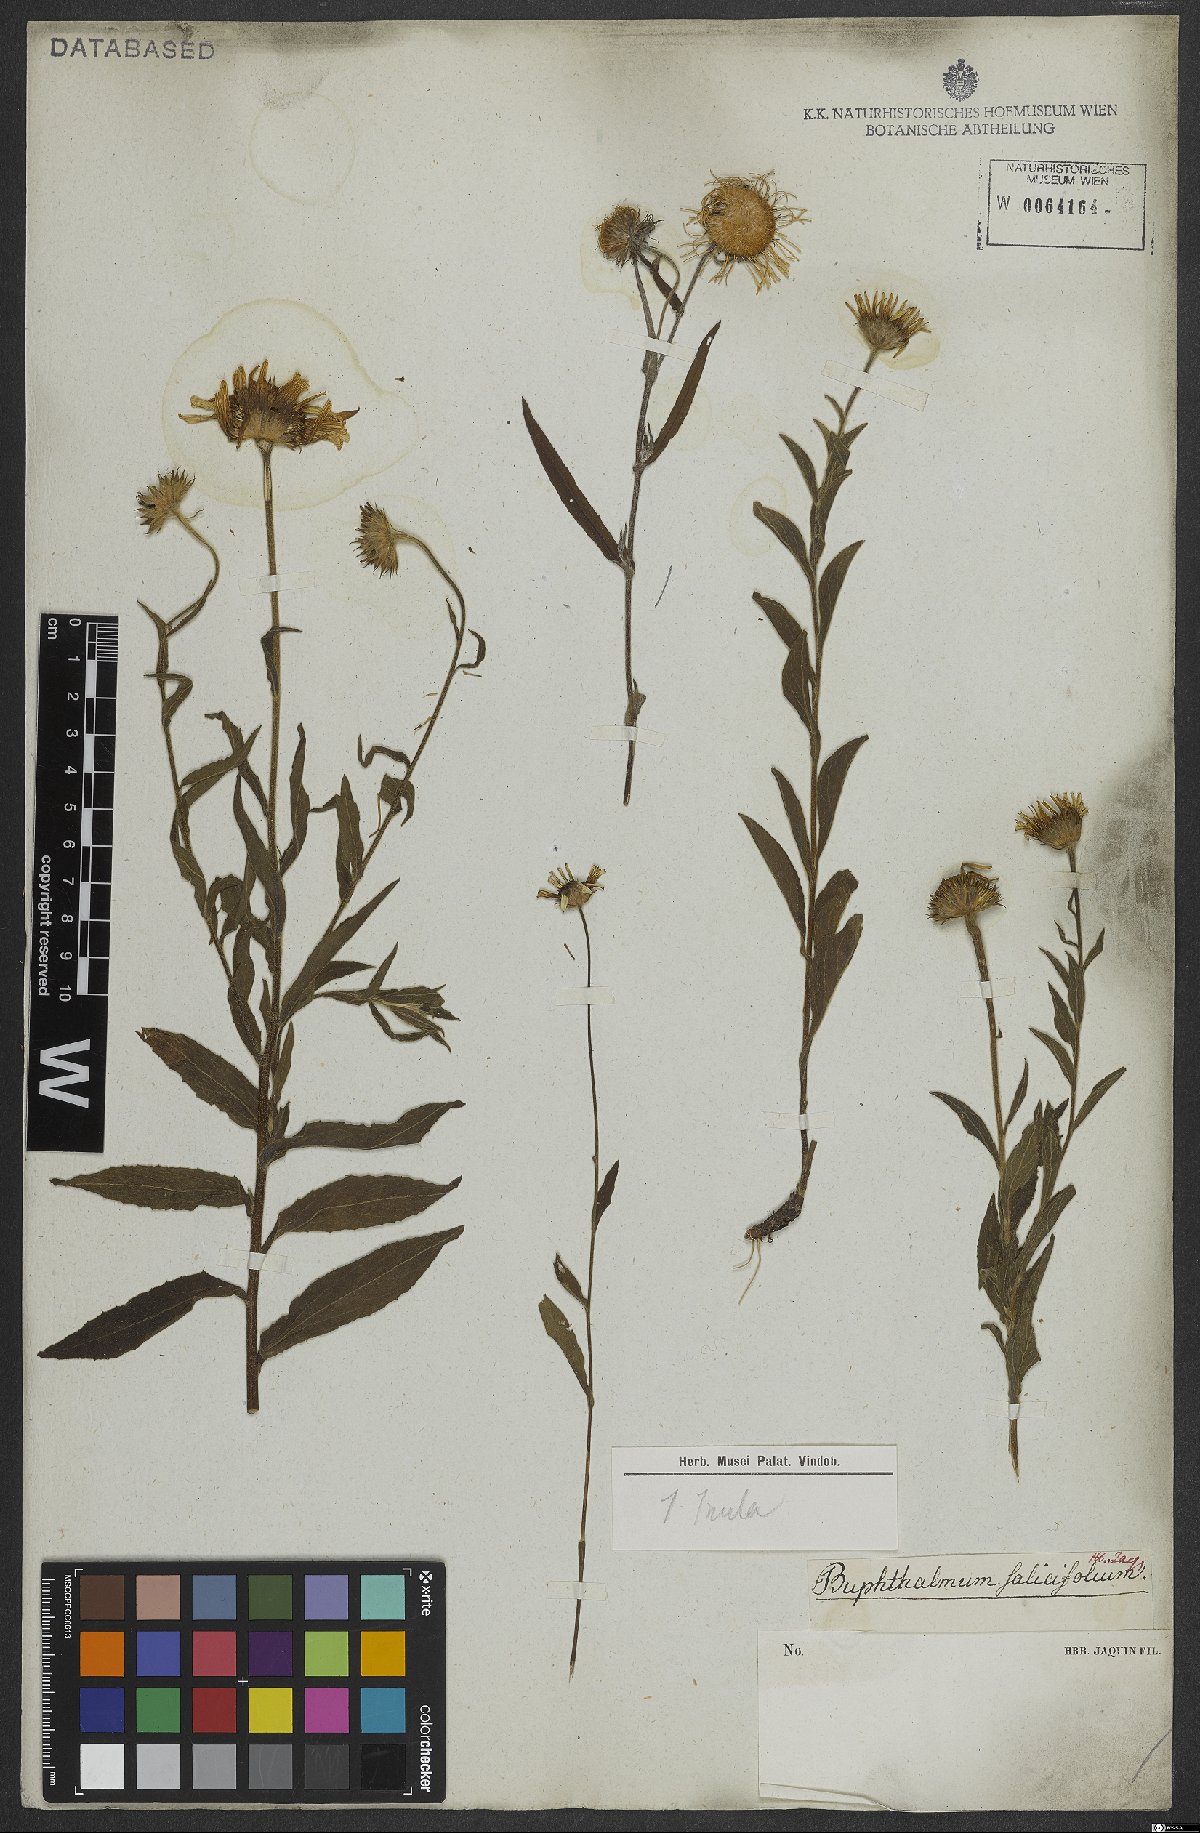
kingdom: Plantae
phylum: Tracheophyta
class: Magnoliopsida
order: Asterales
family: Asteraceae
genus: Buphthalmum
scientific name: Buphthalmum salicifolium
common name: Willow-leaved yellow-oxeye
